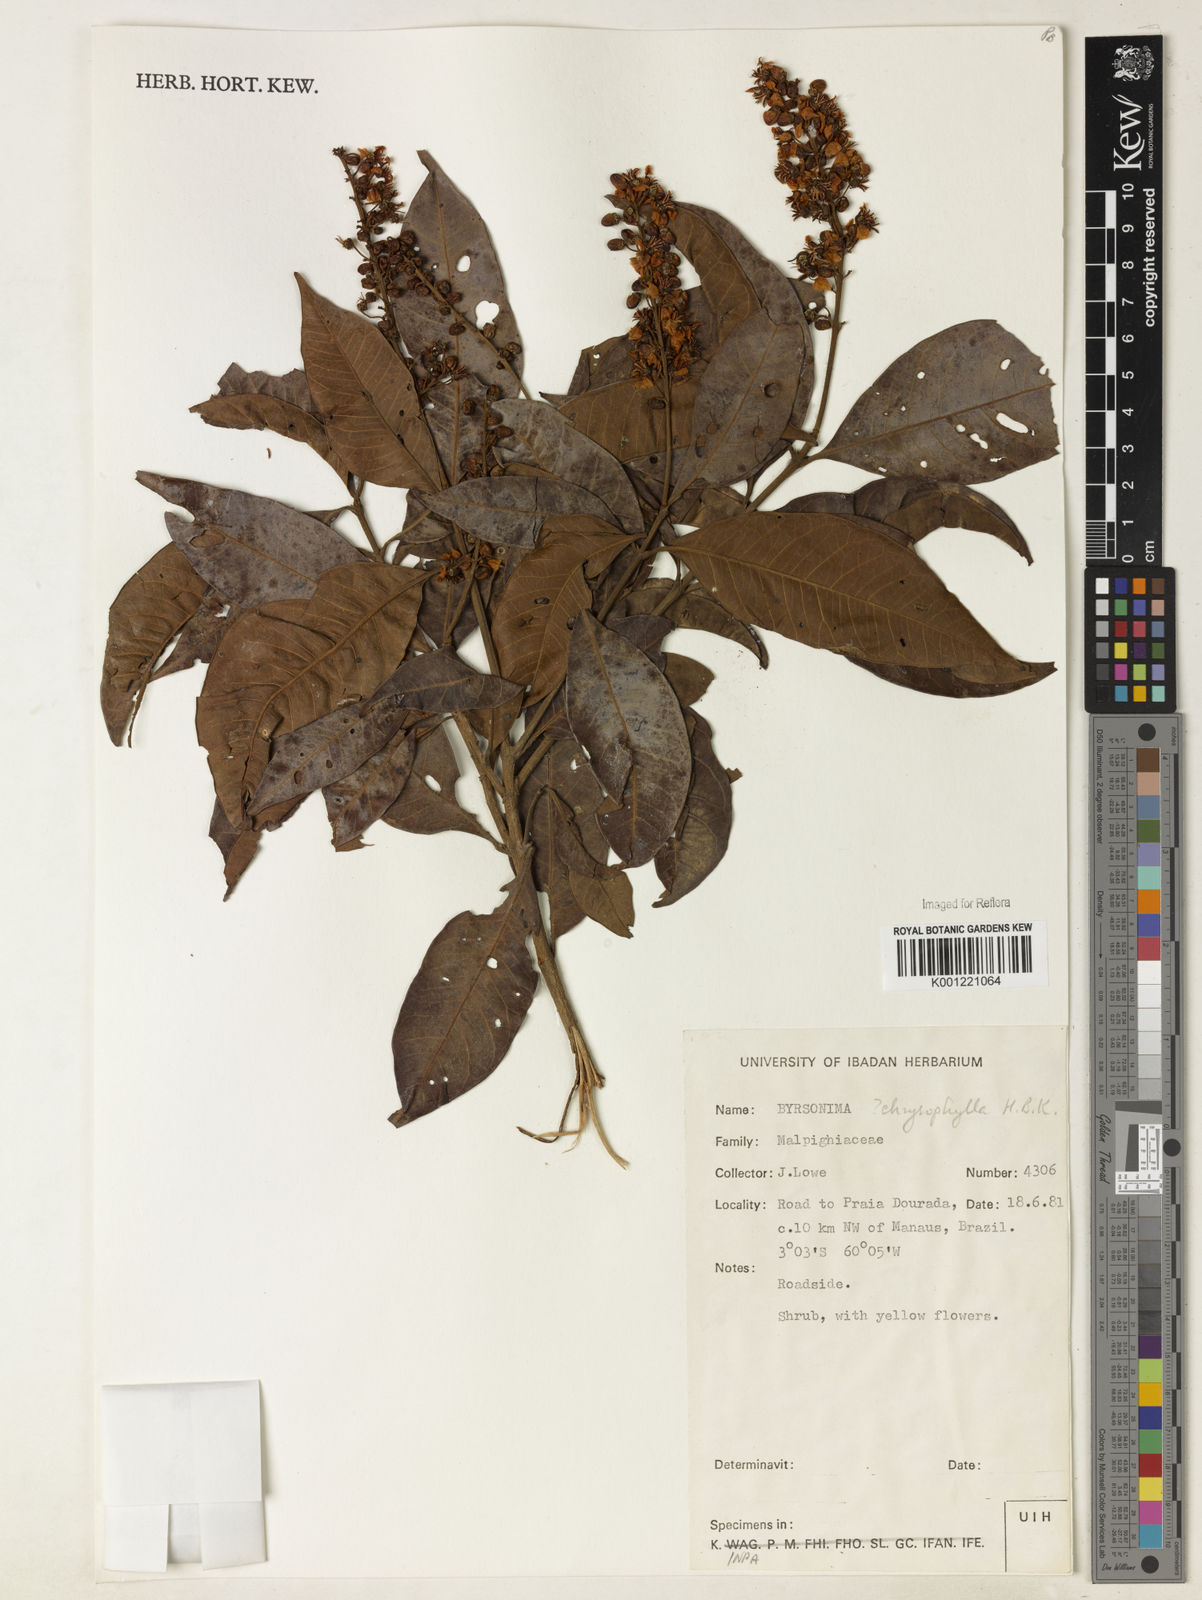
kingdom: Plantae
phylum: Tracheophyta
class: Magnoliopsida
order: Malpighiales
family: Malpighiaceae
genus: Byrsonima
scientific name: Byrsonima chrysophylla
